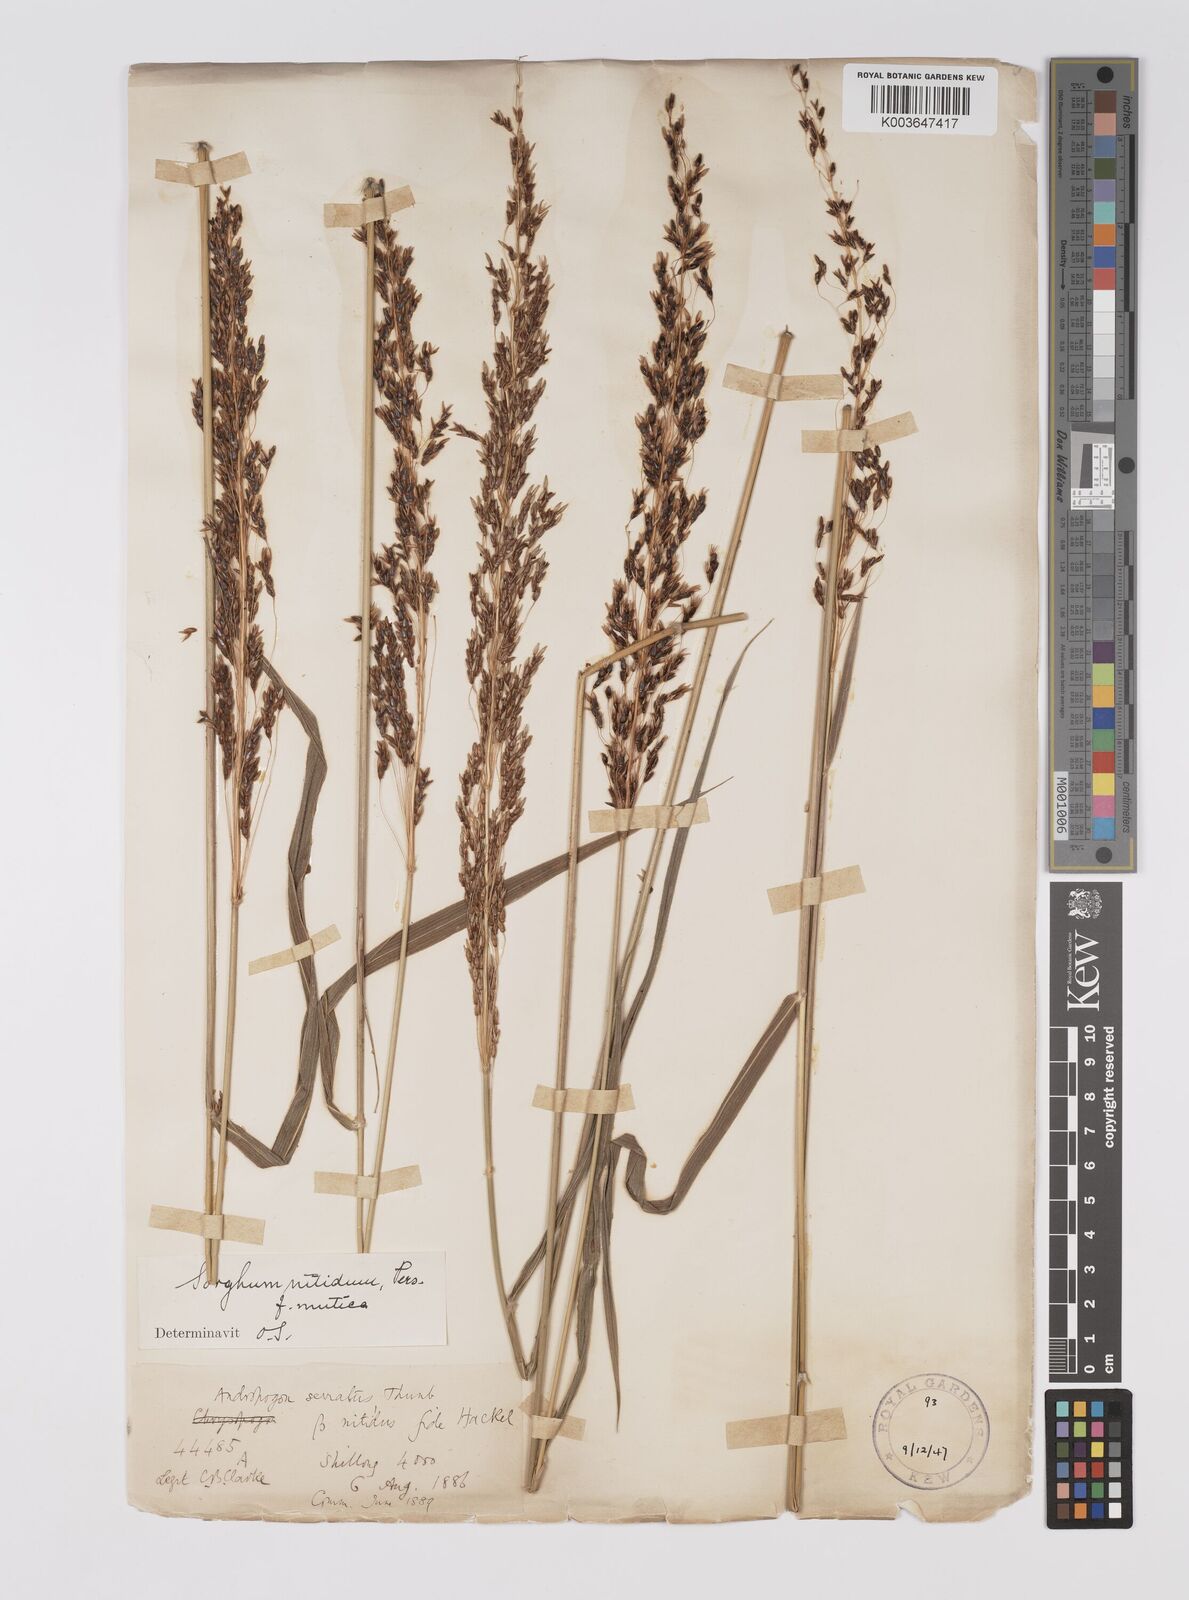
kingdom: Plantae
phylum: Tracheophyta
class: Liliopsida
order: Poales
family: Poaceae
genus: Sorghum
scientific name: Sorghum nitidum
